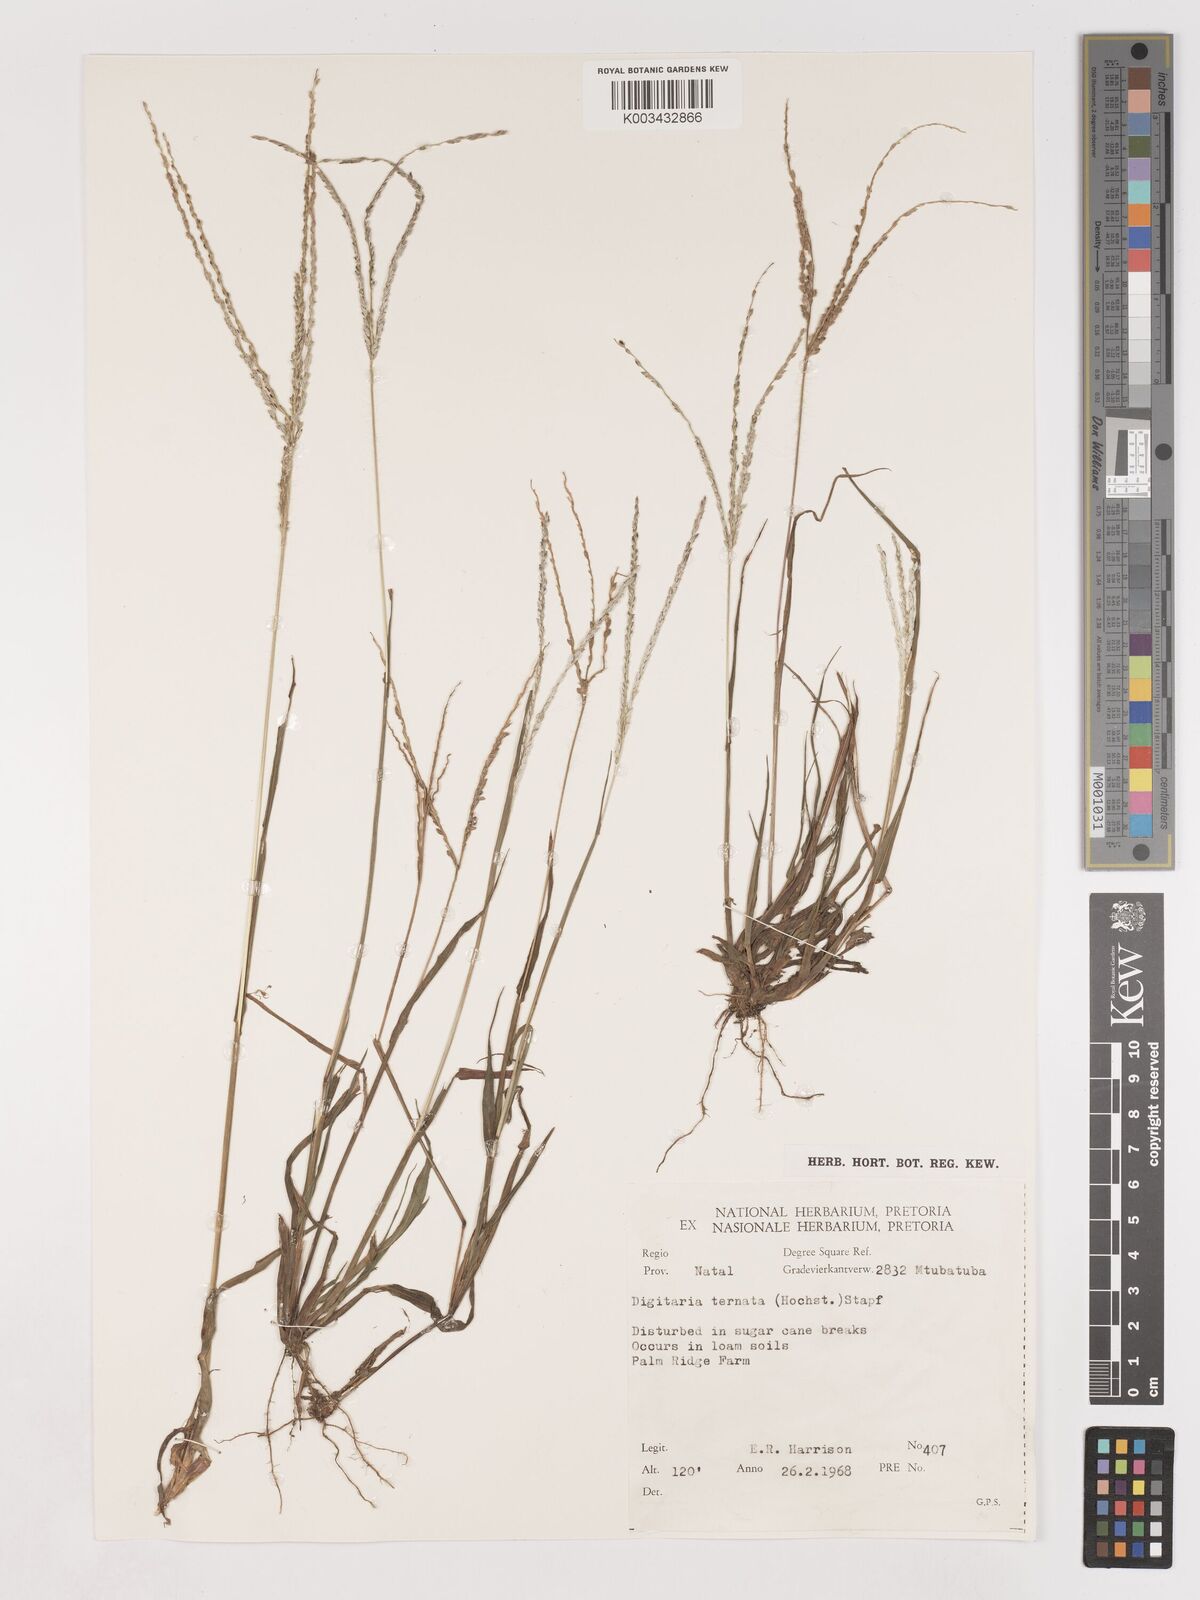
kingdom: Plantae
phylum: Tracheophyta
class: Liliopsida
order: Poales
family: Poaceae
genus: Digitaria
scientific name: Digitaria ternata
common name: Blackseed crabgrass
